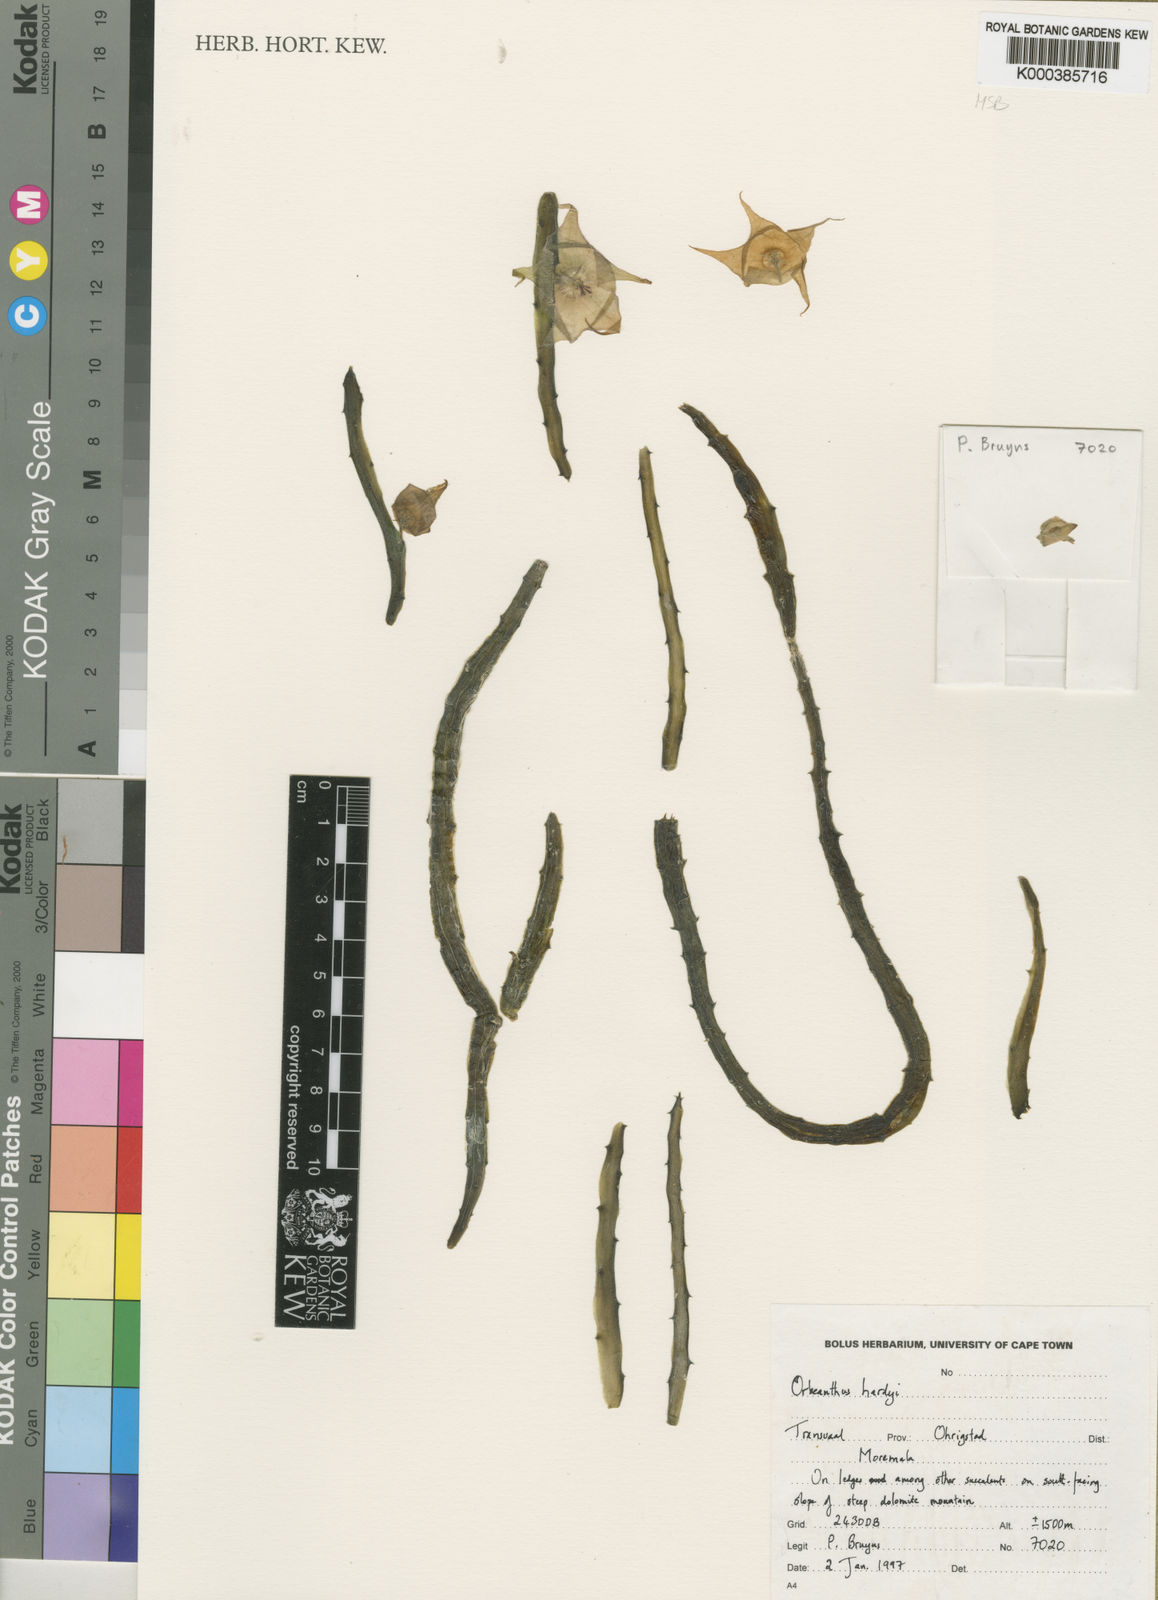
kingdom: Plantae
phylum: Tracheophyta
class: Magnoliopsida
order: Gentianales
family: Apocynaceae
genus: Ceropegia
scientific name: Ceropegia hardyi
